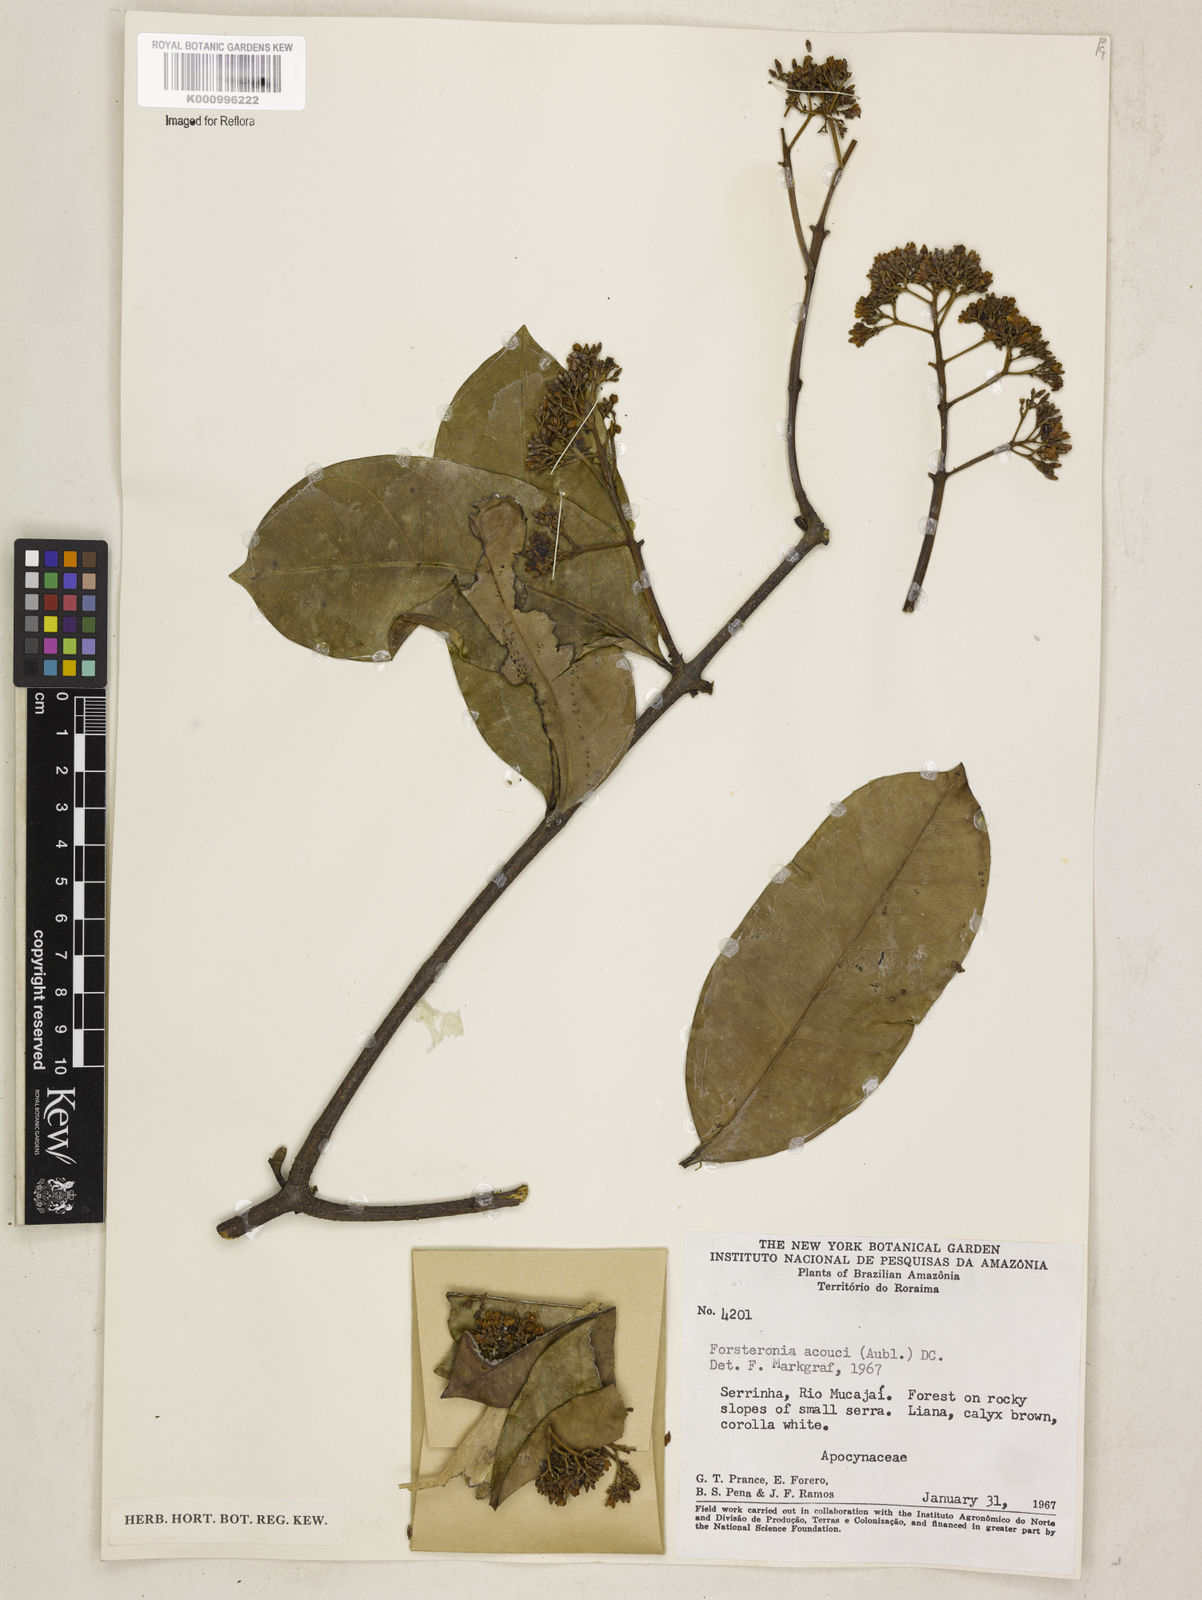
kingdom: Plantae
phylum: Tracheophyta
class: Magnoliopsida
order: Gentianales
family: Apocynaceae
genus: Forsteronia
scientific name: Forsteronia acouci
